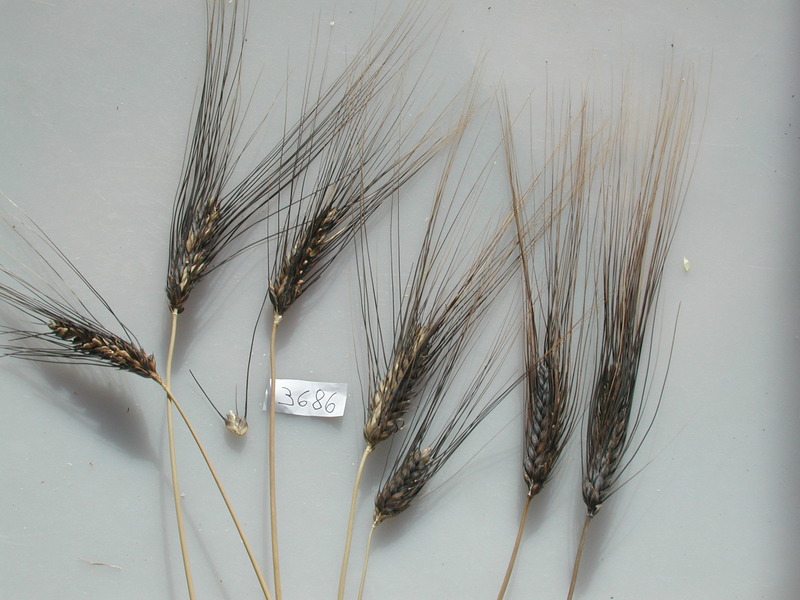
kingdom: Plantae
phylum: Tracheophyta
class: Liliopsida
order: Poales
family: Poaceae
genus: Triticum
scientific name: Triticum turgidum
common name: Wheat
